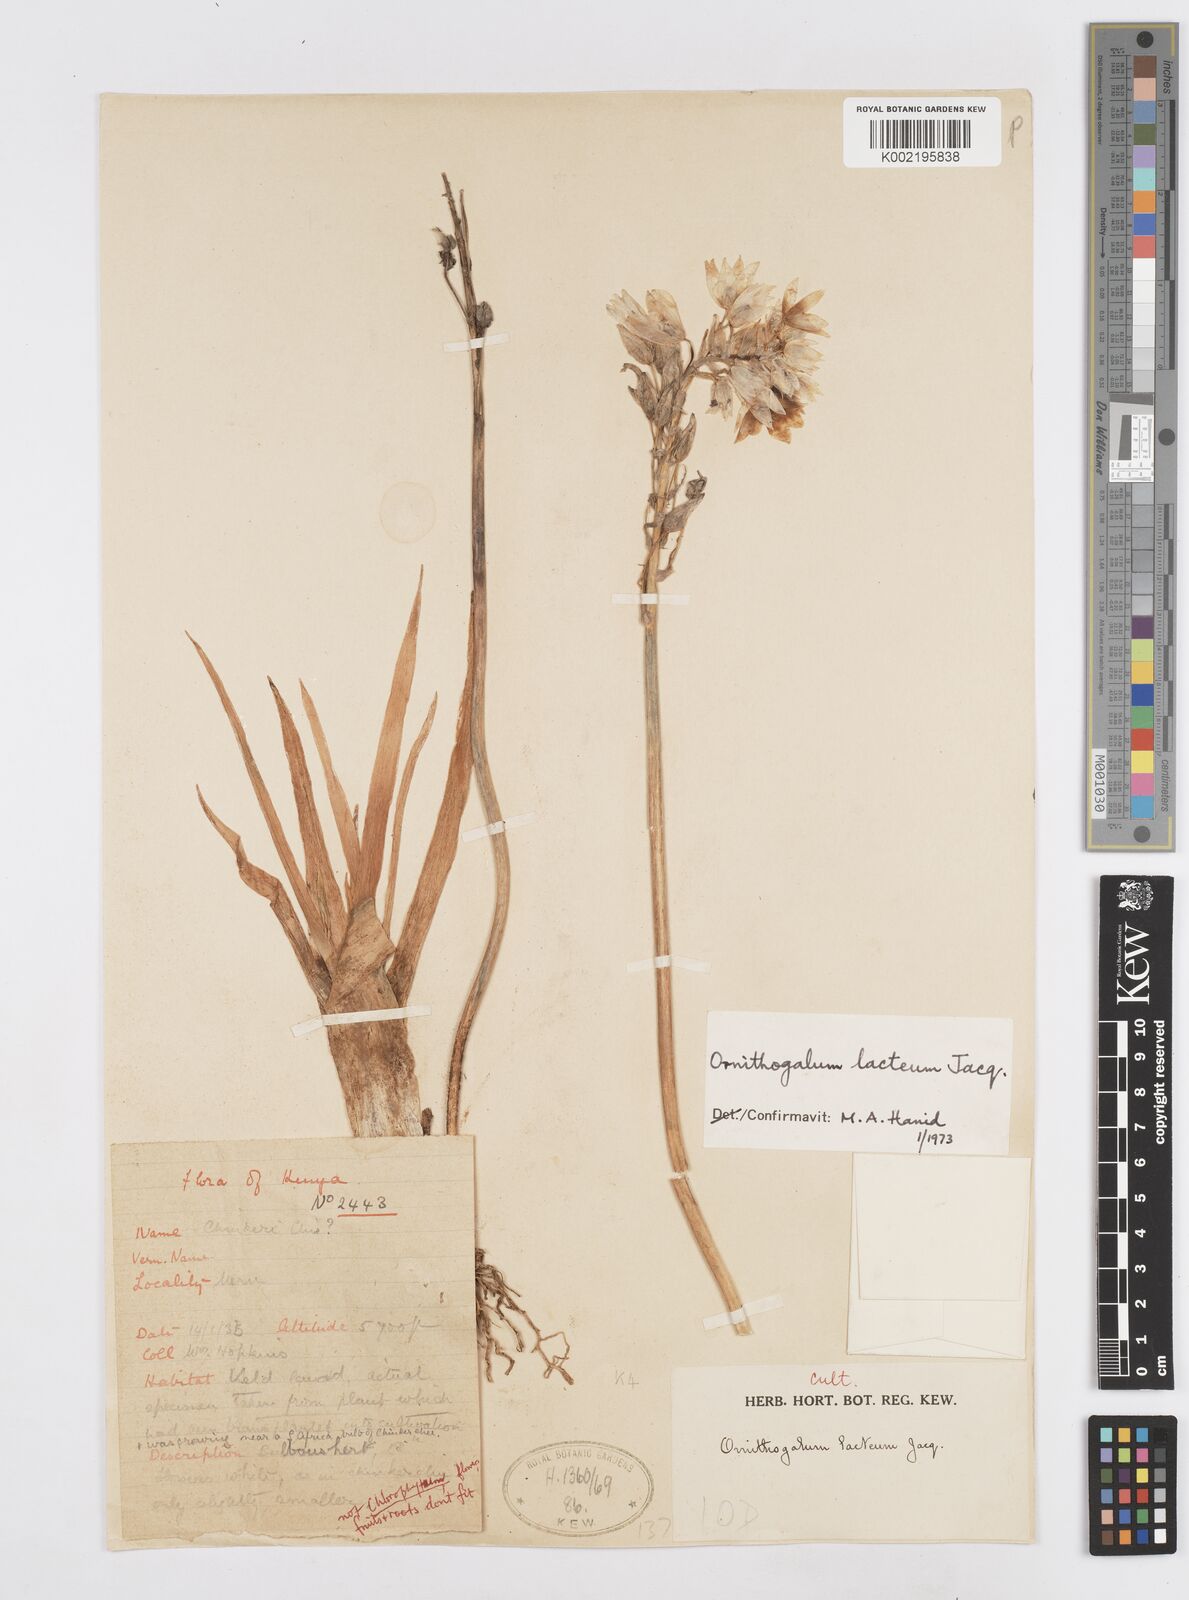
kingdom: Plantae
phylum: Tracheophyta
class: Liliopsida
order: Asparagales
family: Asparagaceae
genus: Ornithogalum
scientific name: Ornithogalum conicum
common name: Chinkerinchee
